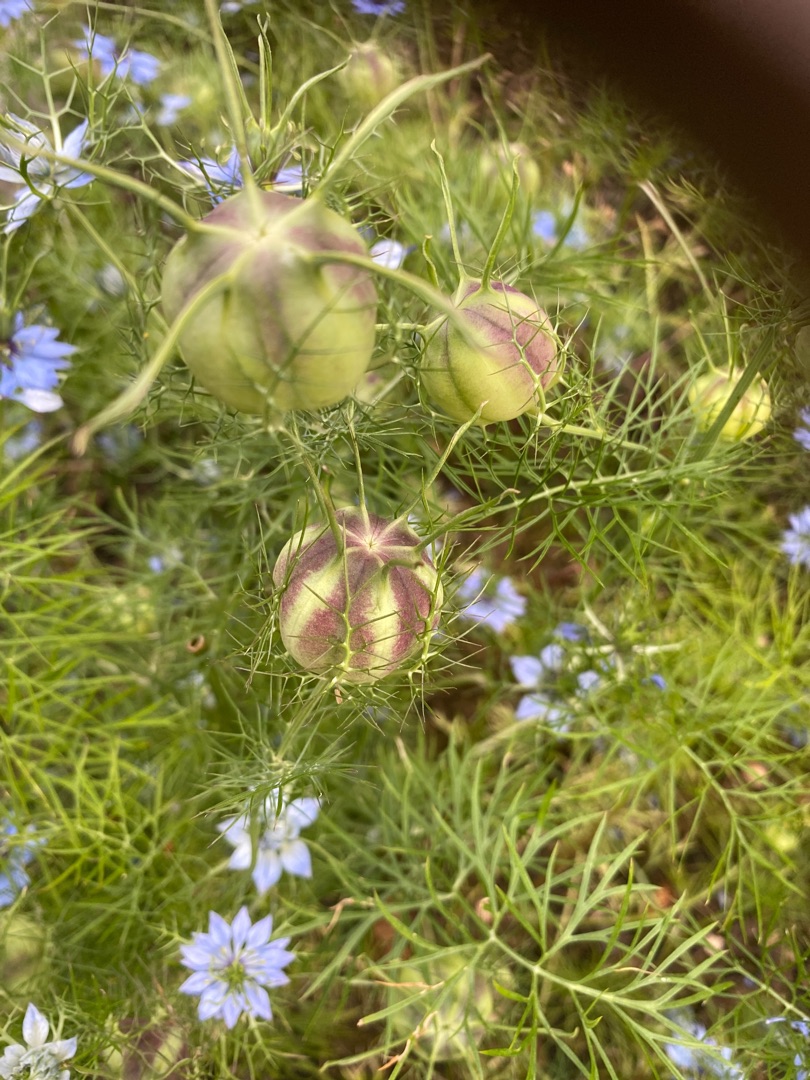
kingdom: Plantae
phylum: Tracheophyta
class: Magnoliopsida
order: Ranunculales
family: Ranunculaceae
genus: Nigella
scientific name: Nigella damascena
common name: Jomfru i det grønne
